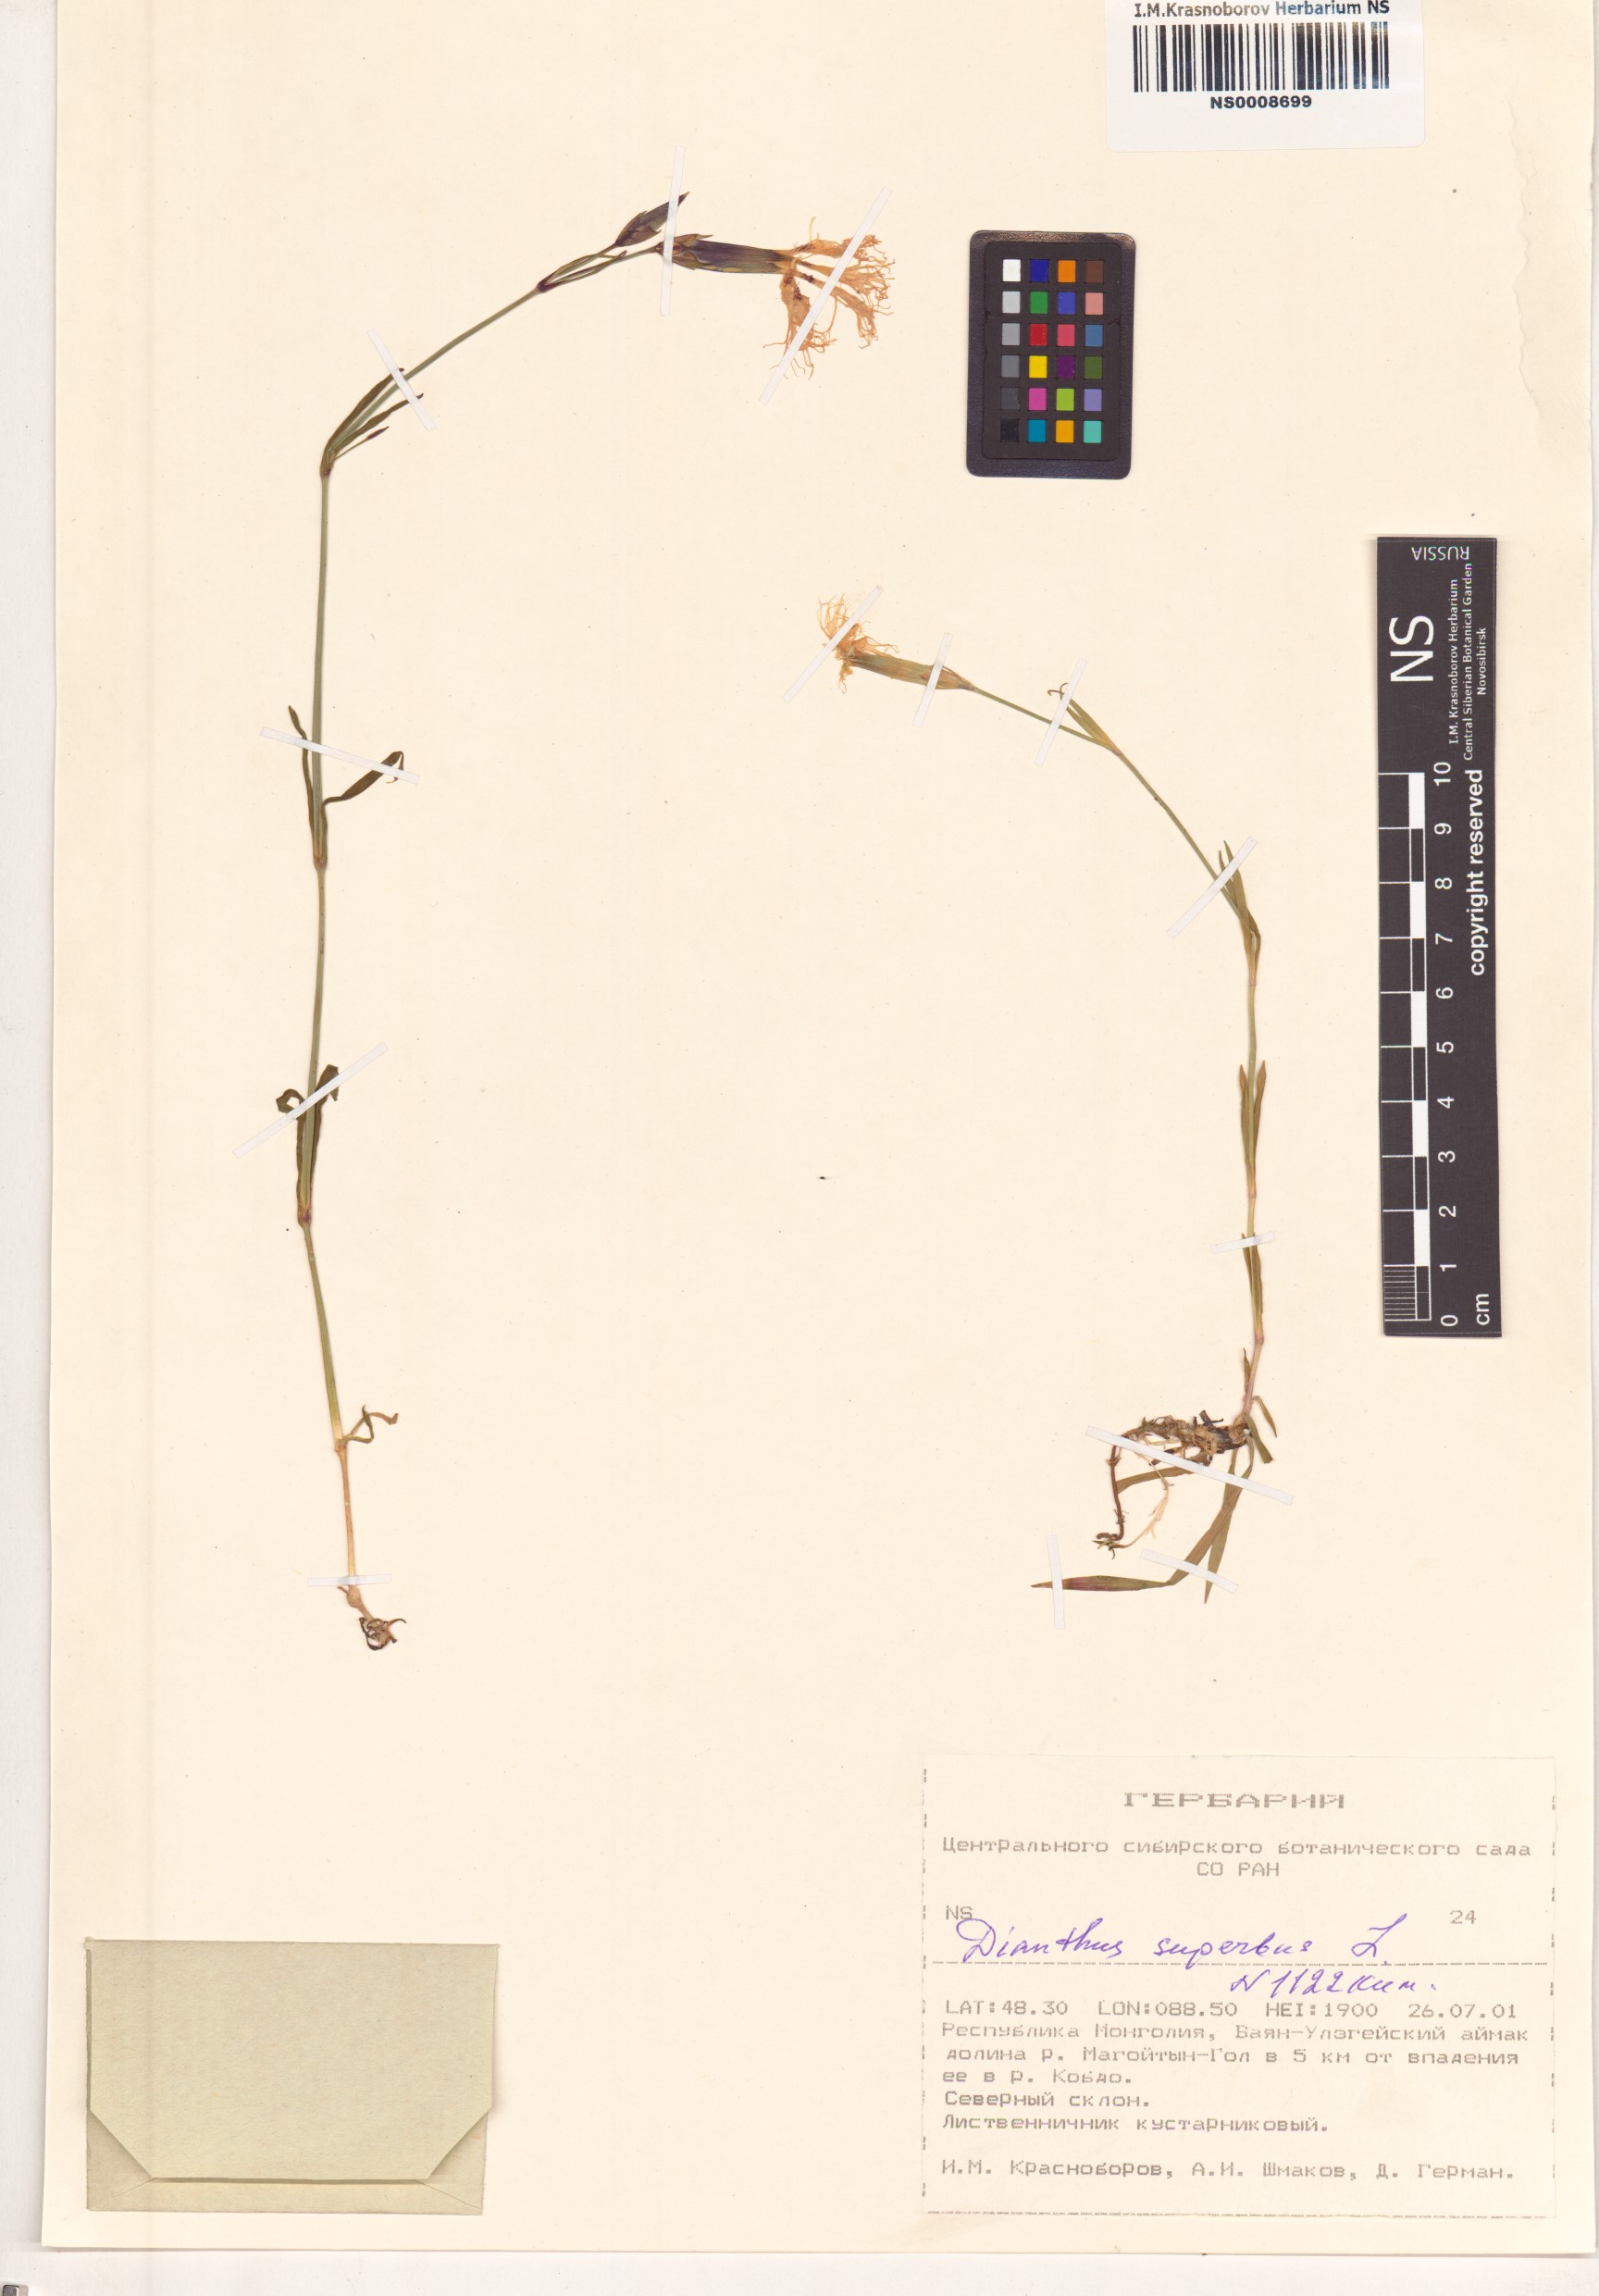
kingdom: Plantae
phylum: Tracheophyta
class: Magnoliopsida
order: Caryophyllales
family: Caryophyllaceae
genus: Dianthus
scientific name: Dianthus superbus
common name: Fringed pink
